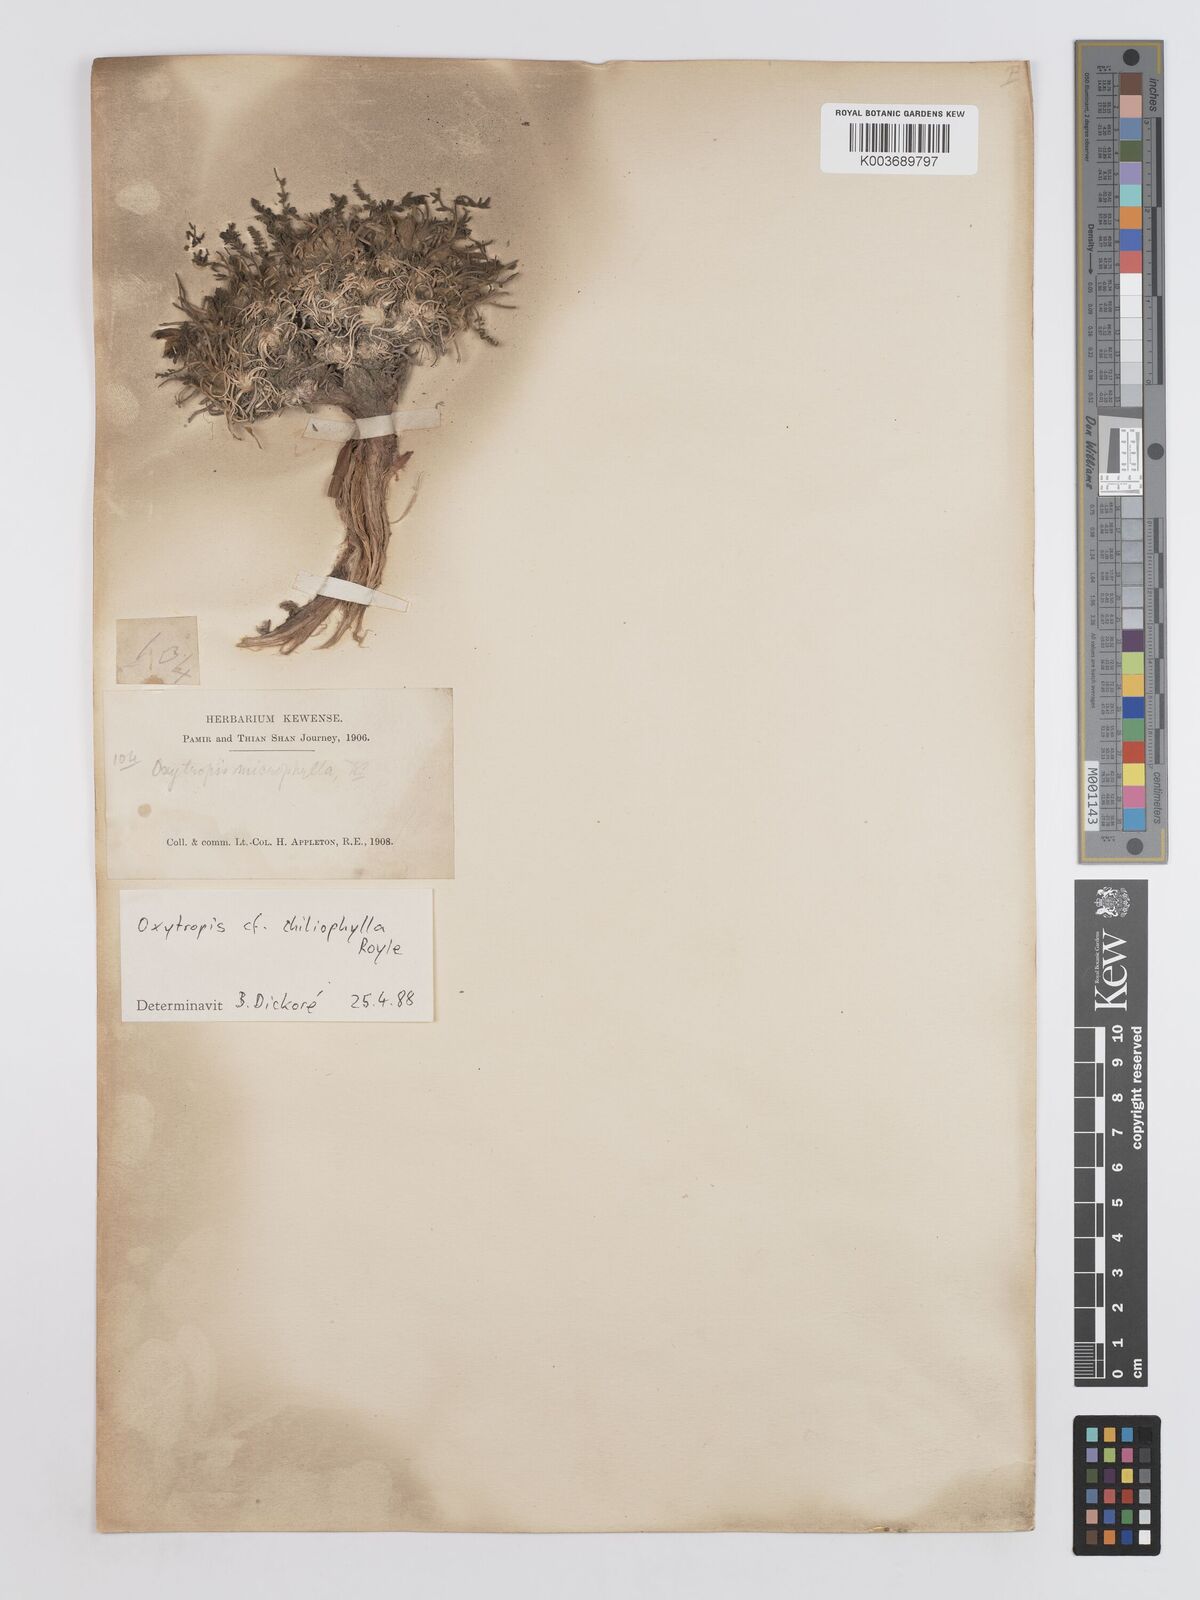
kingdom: Plantae
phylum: Tracheophyta
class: Magnoliopsida
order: Fabales
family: Fabaceae
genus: Oxytropis
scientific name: Oxytropis chiliophylla
